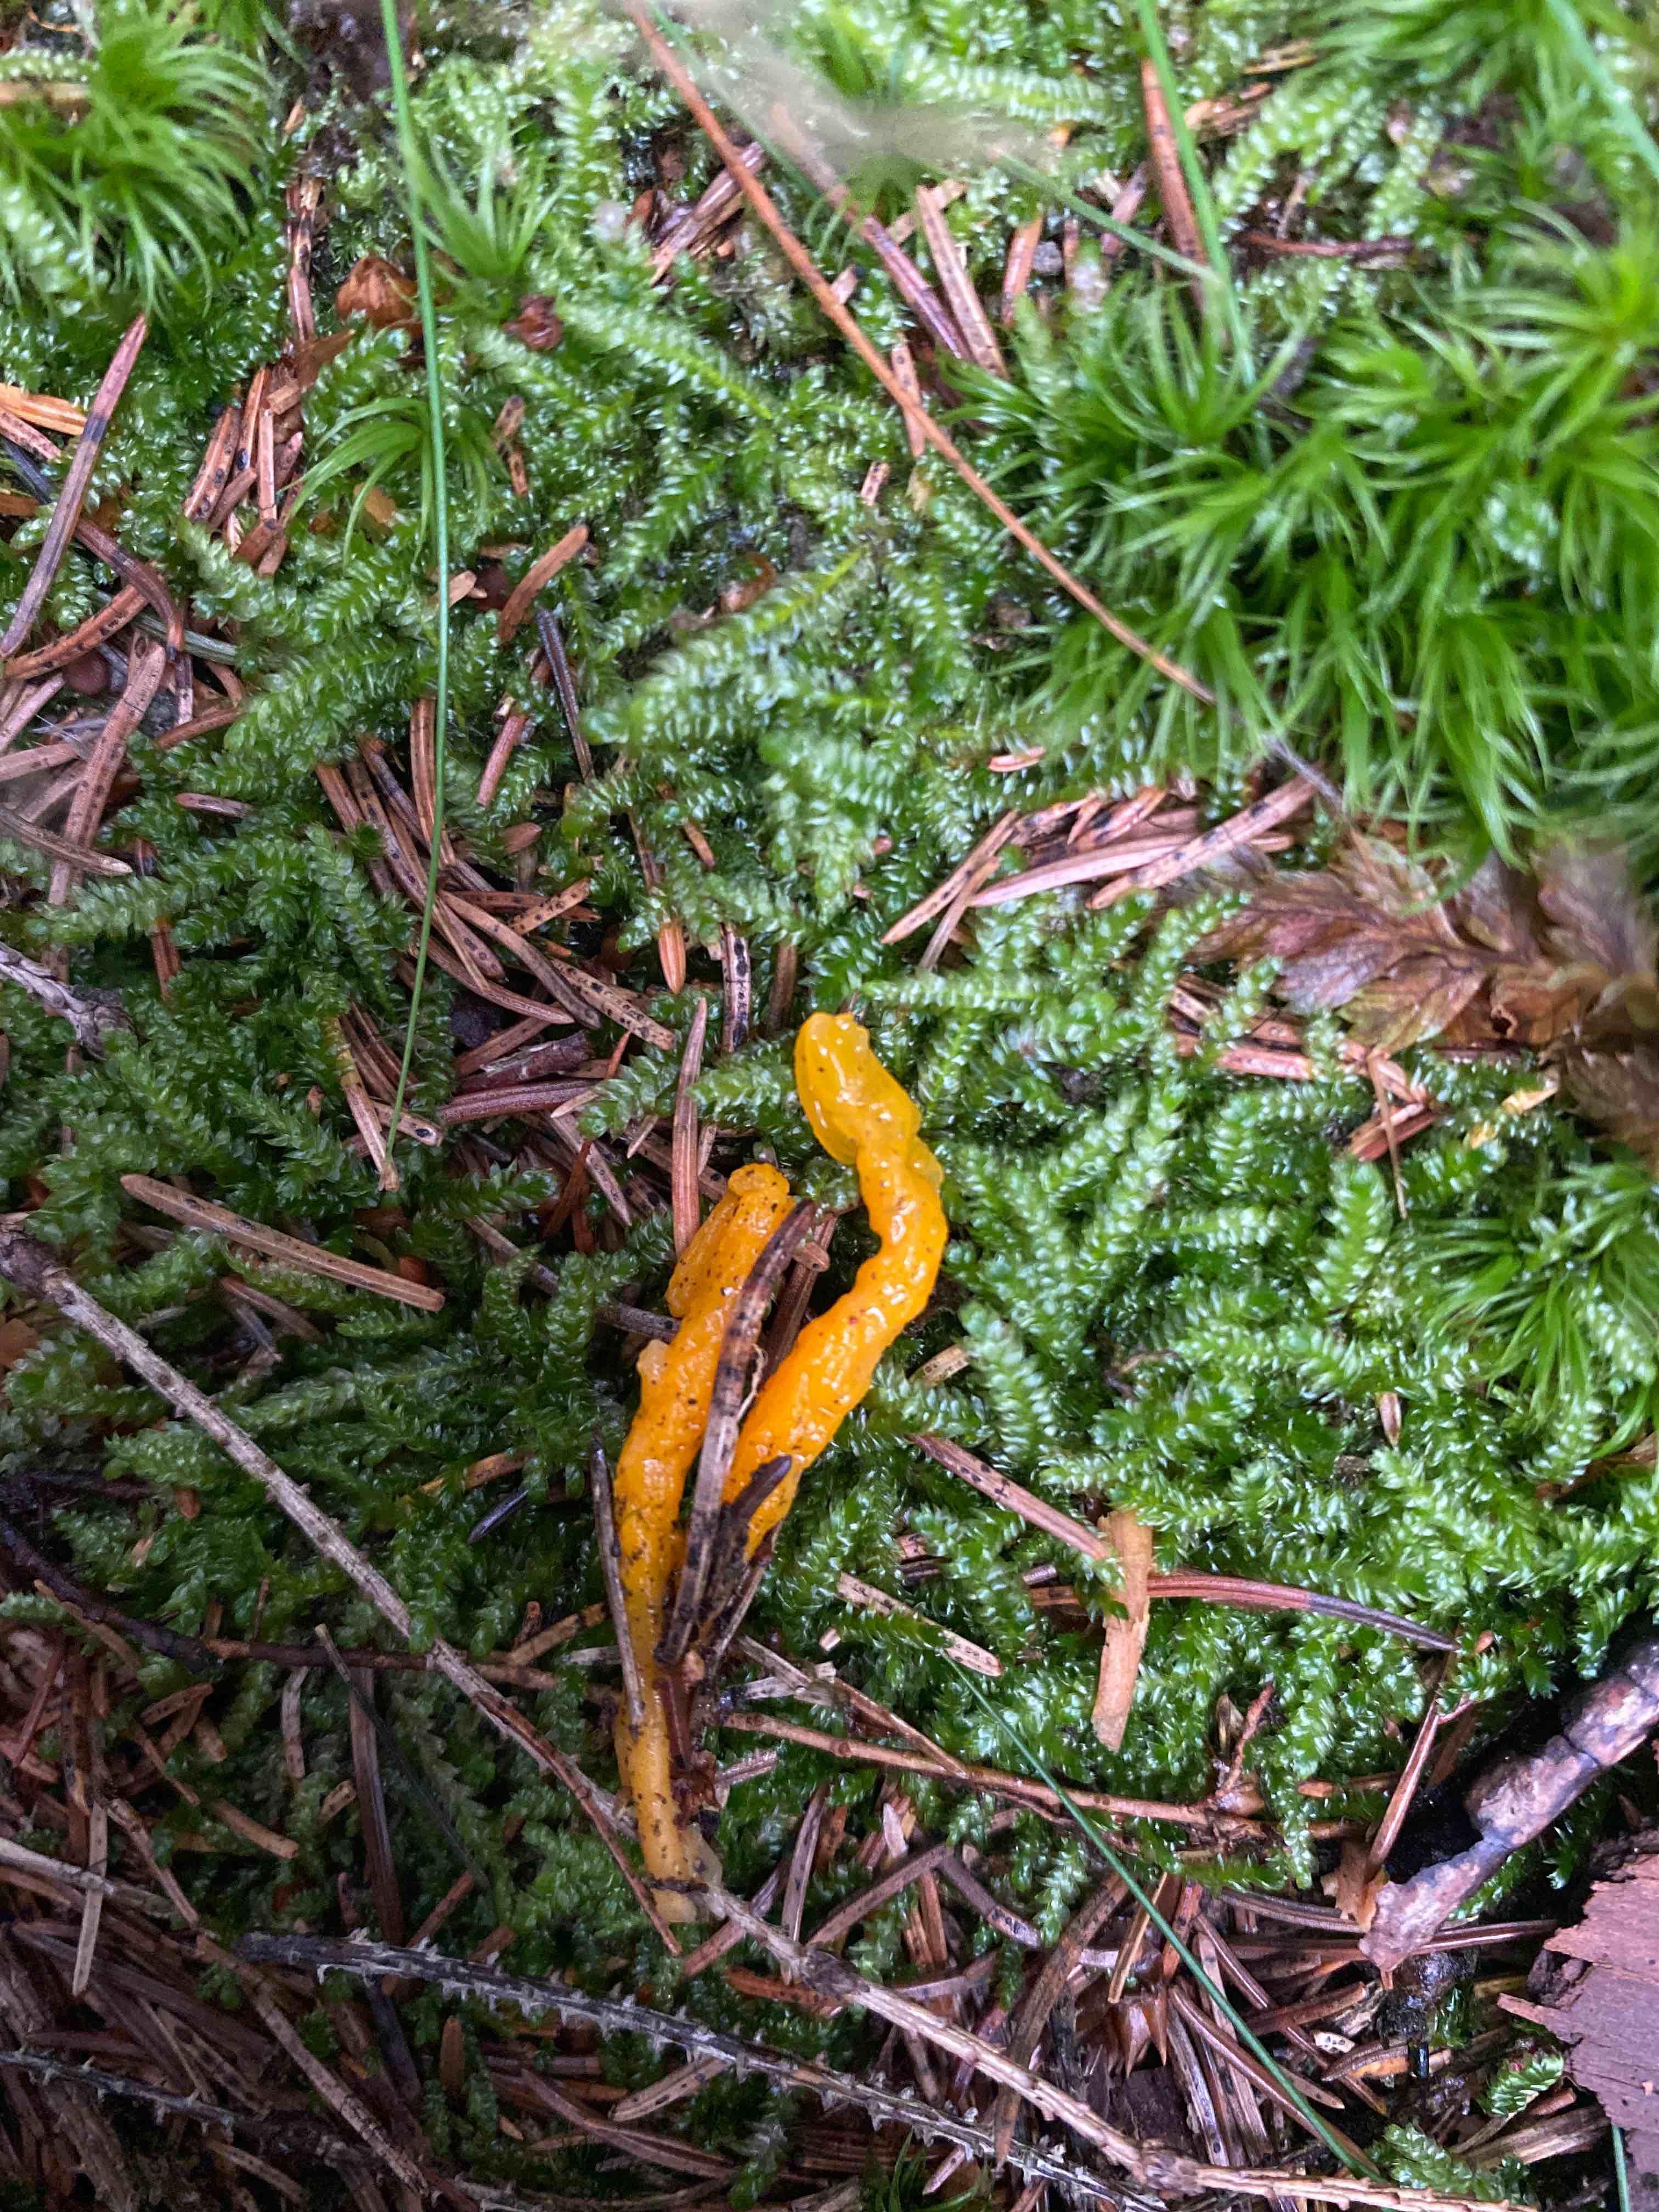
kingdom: Fungi
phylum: Basidiomycota
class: Dacrymycetes
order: Dacrymycetales
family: Dacrymycetaceae
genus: Calocera
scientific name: Calocera viscosa
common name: almindelig guldgaffel
